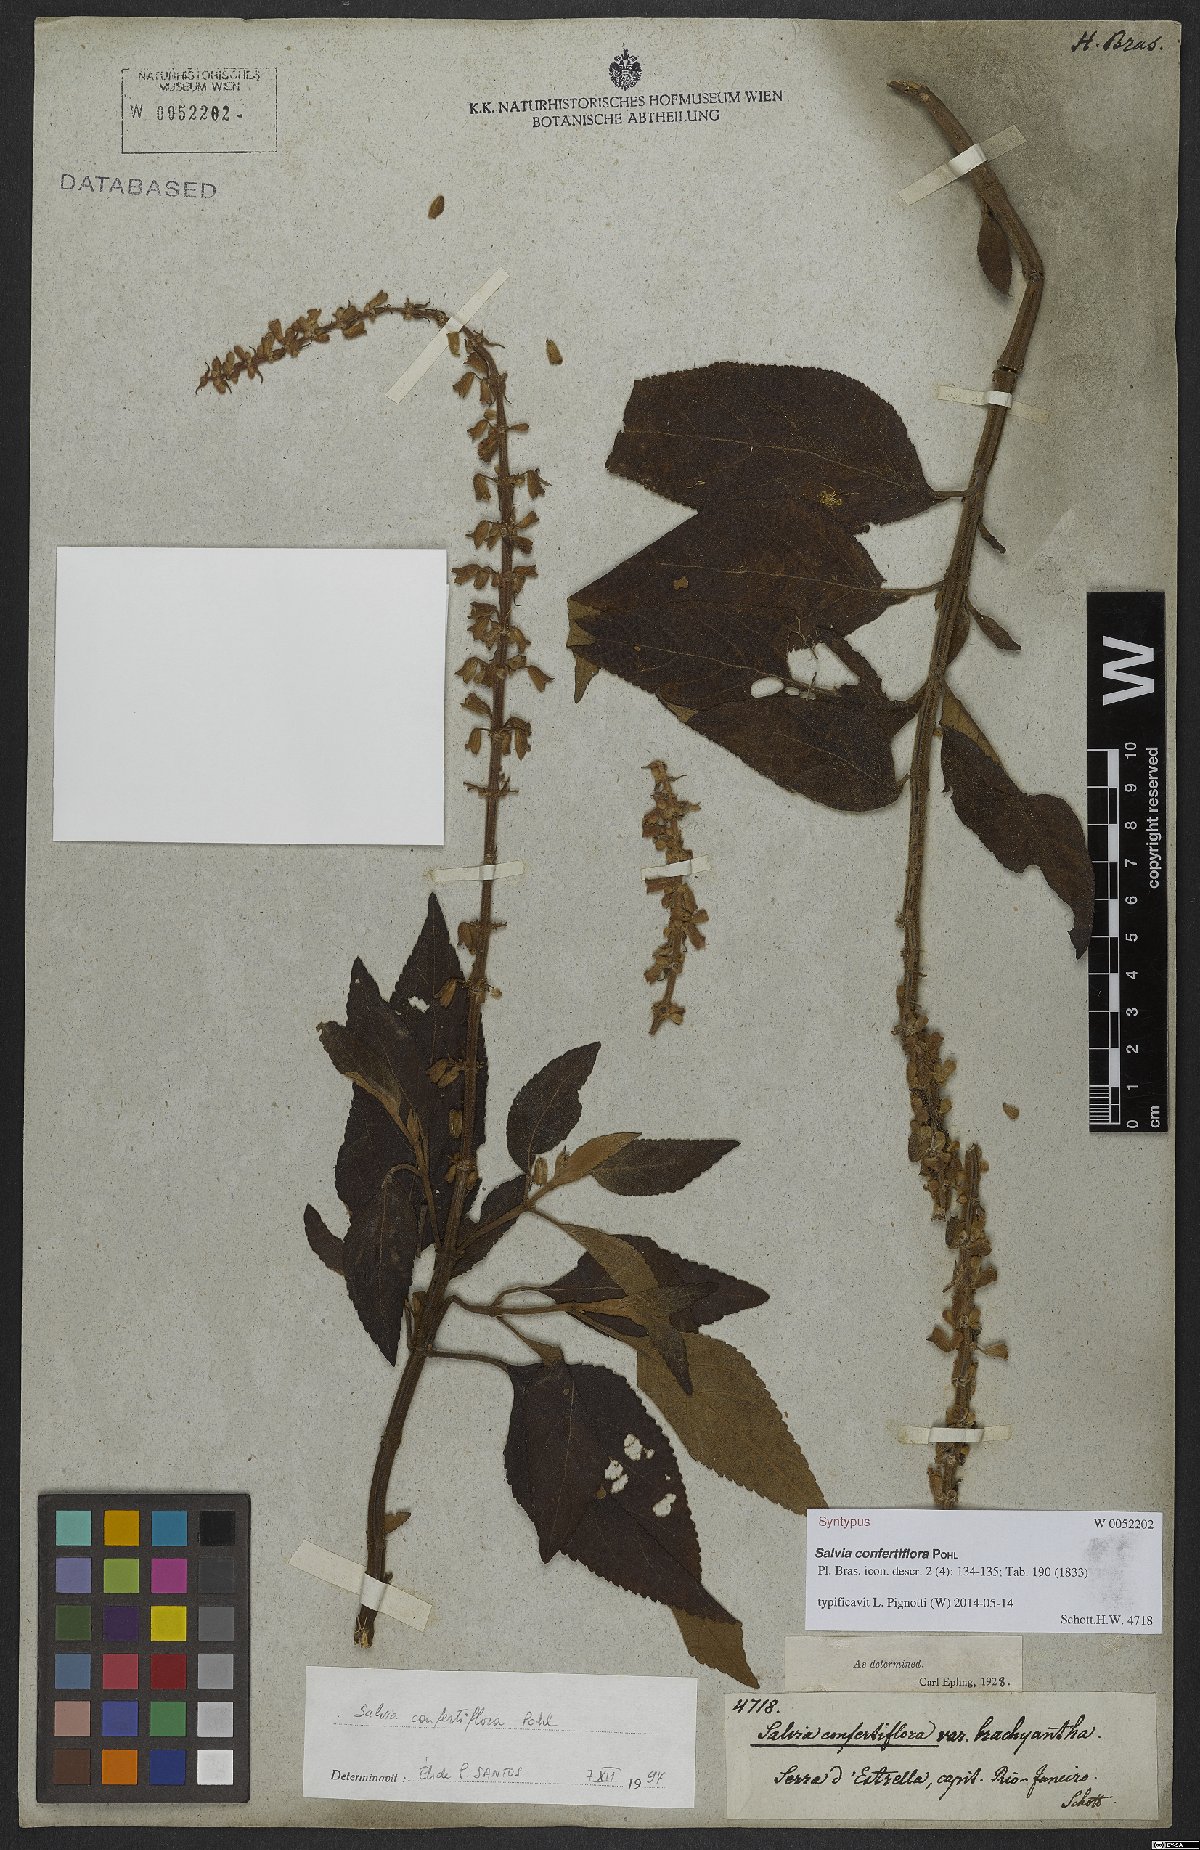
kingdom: Plantae
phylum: Tracheophyta
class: Magnoliopsida
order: Lamiales
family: Lamiaceae
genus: Salvia
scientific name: Salvia confertiflora
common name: Sabra-spike sage
